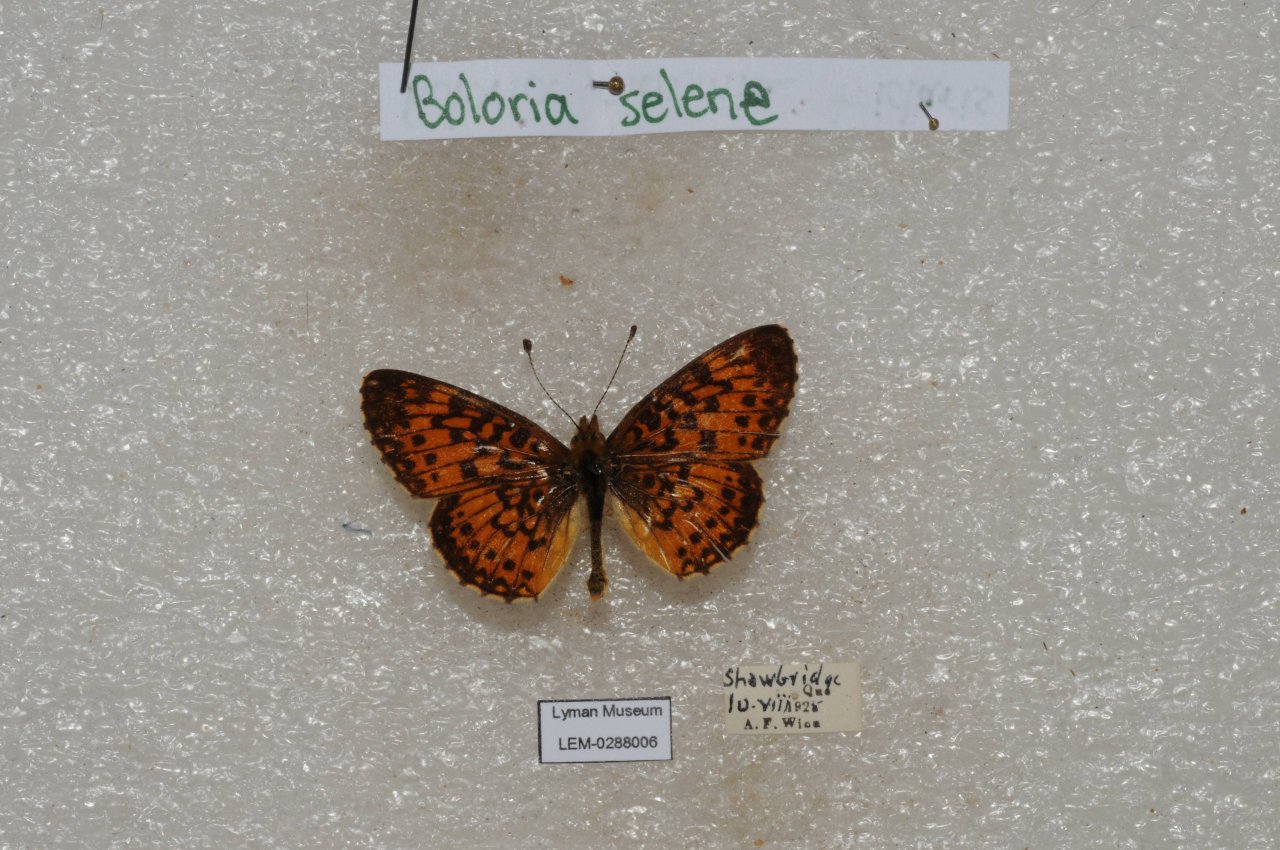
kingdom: Animalia
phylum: Arthropoda
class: Insecta
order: Lepidoptera
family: Nymphalidae
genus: Boloria
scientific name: Boloria selene
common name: Silver-bordered Fritillary
